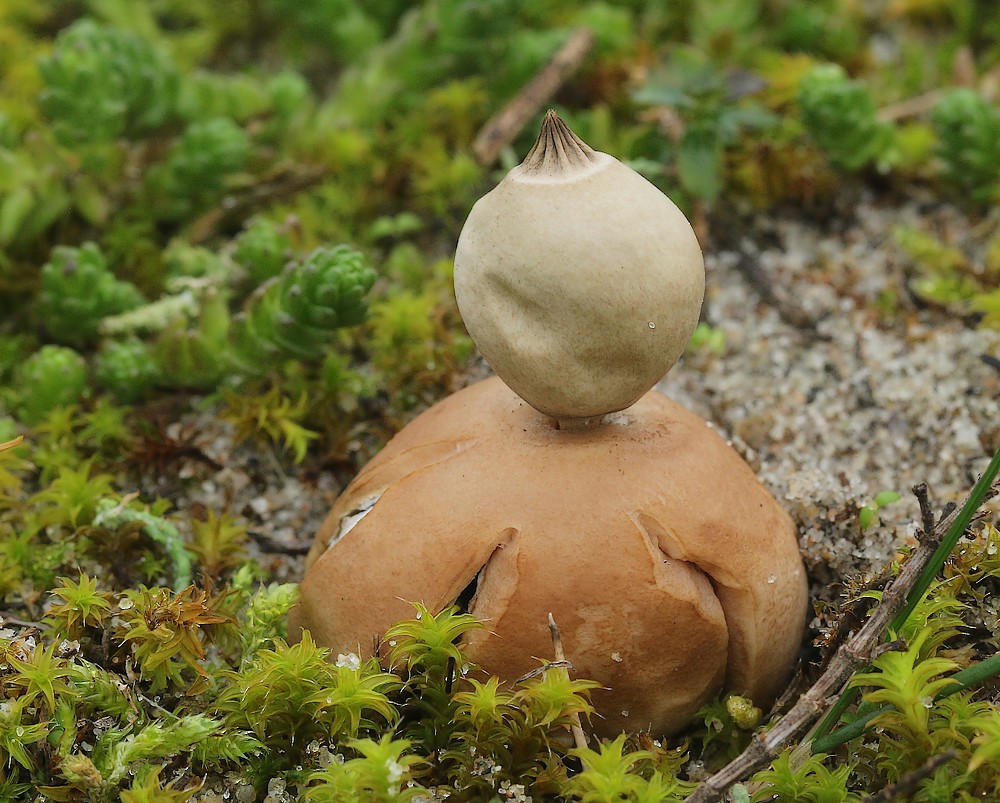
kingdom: Fungi
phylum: Basidiomycota
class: Agaricomycetes
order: Geastrales
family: Geastraceae
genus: Geastrum
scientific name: Geastrum striatum
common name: dværg-stjernebold
